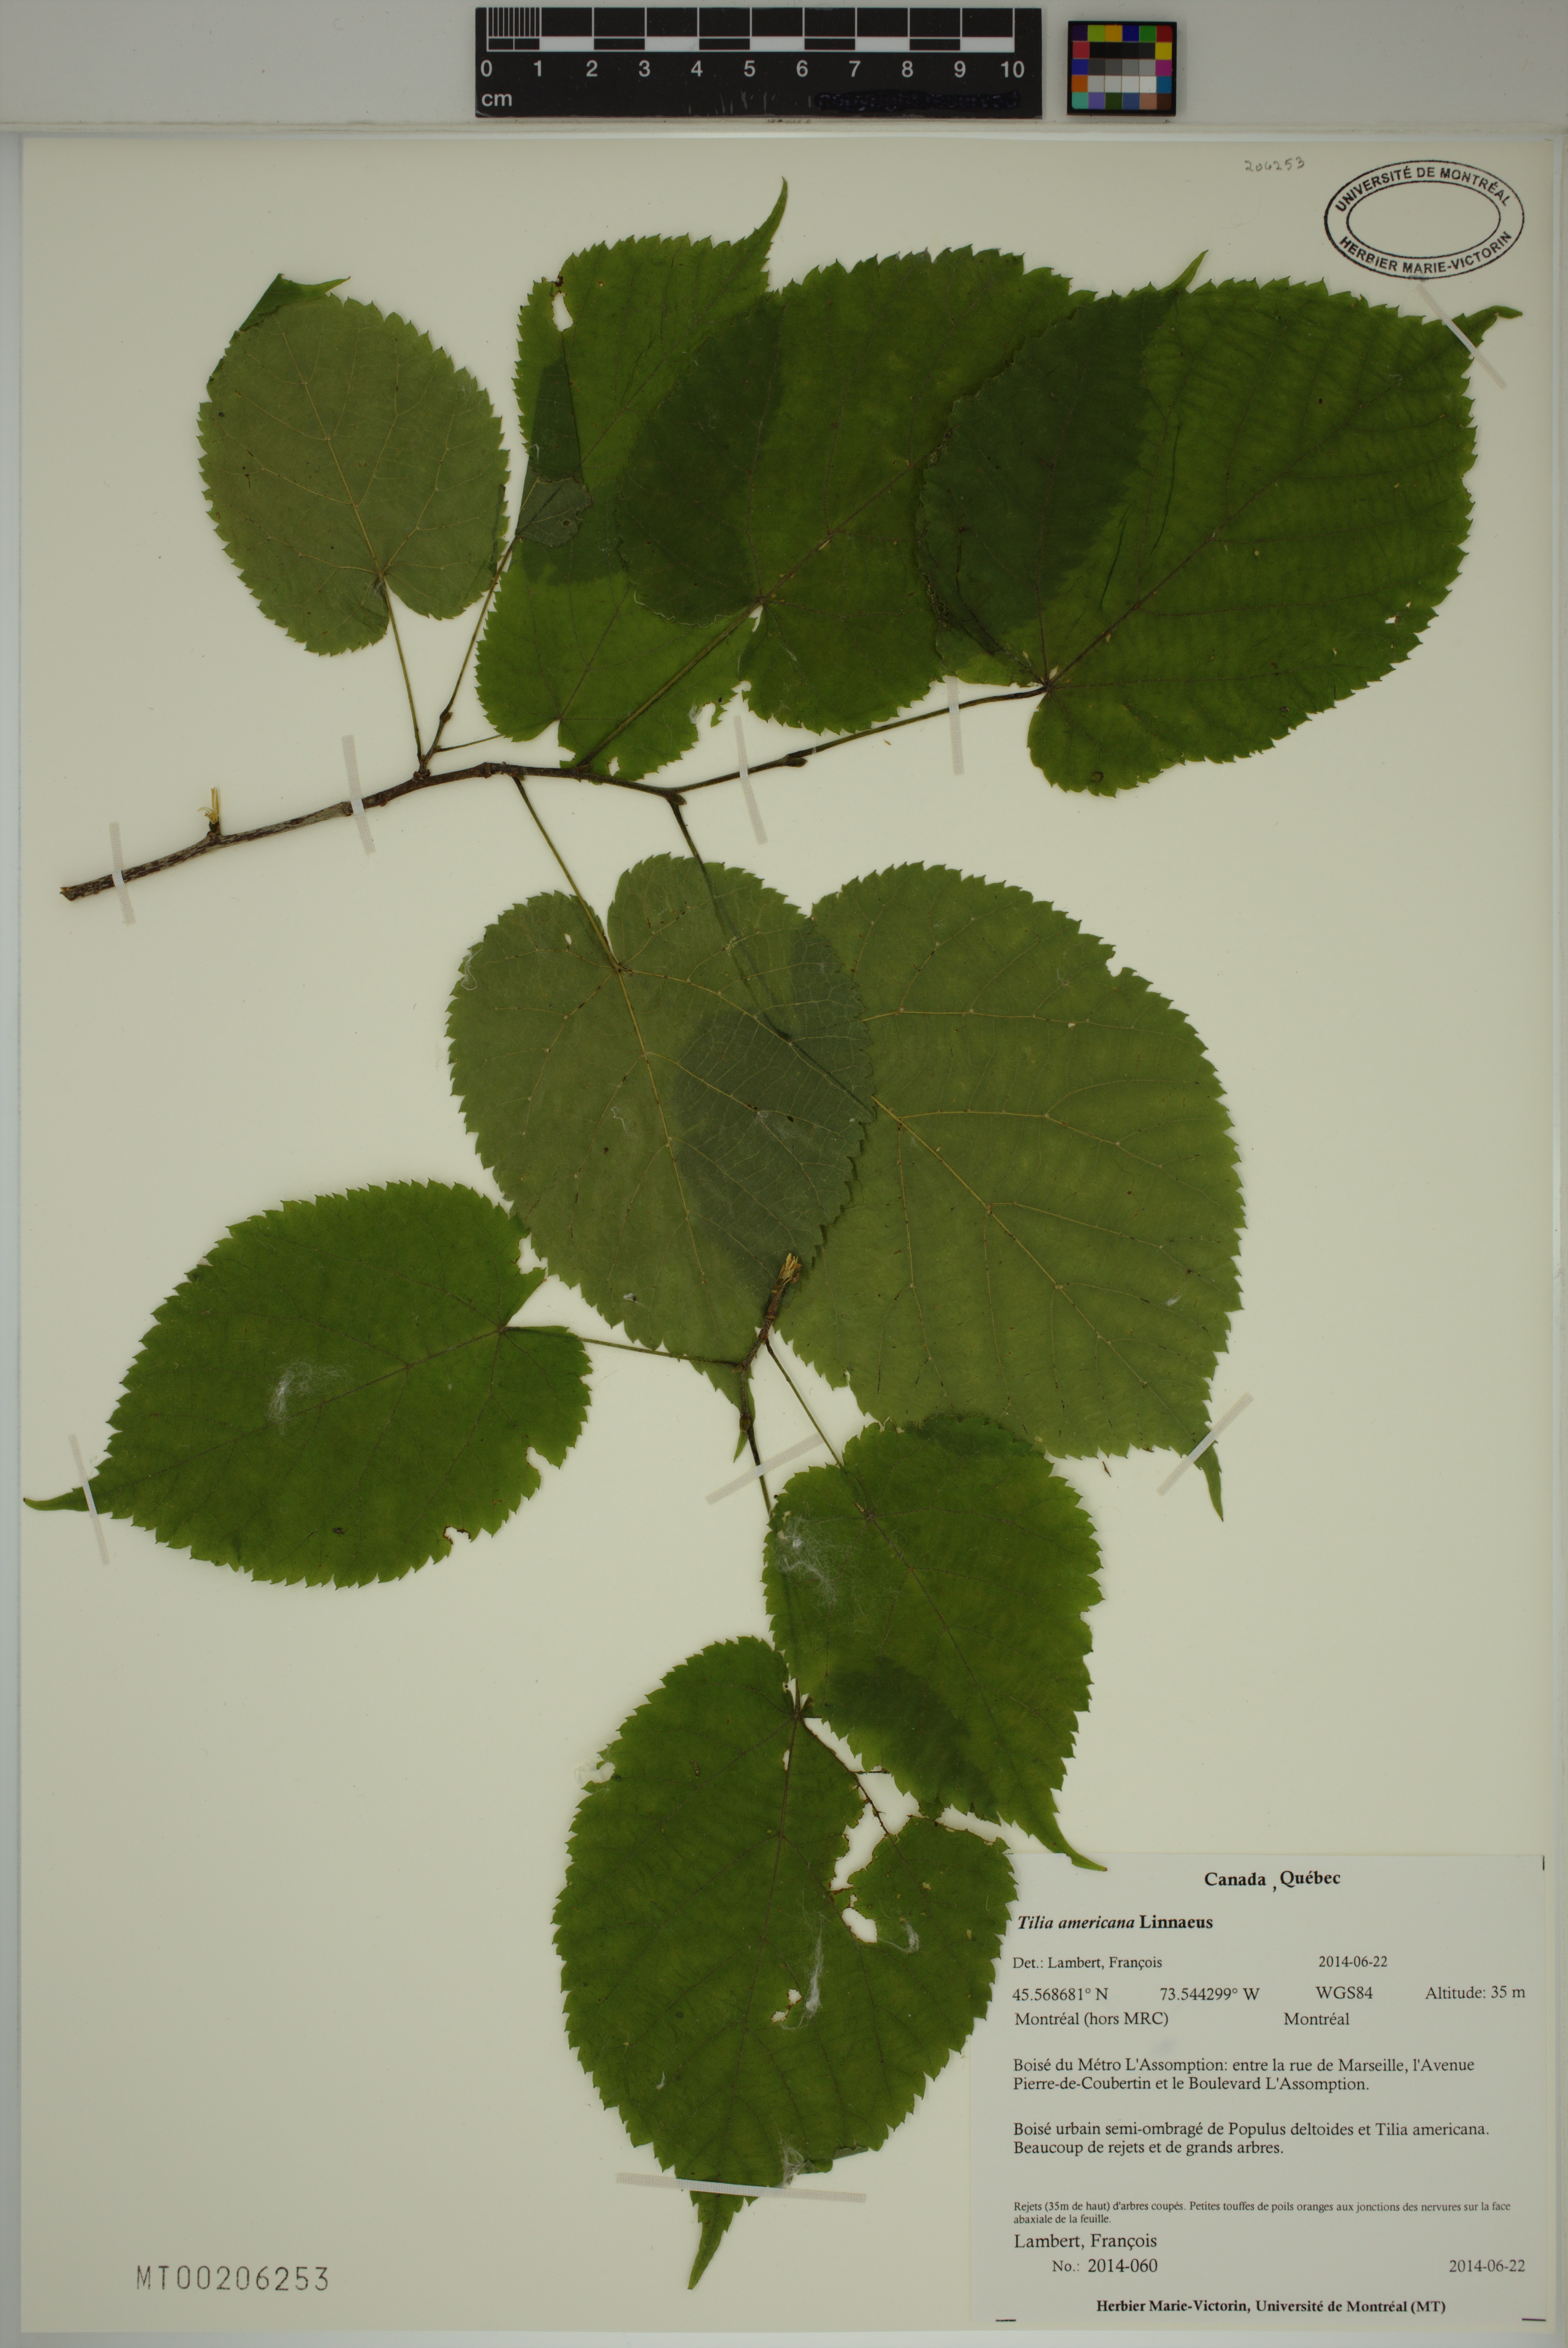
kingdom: Plantae
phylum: Tracheophyta
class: Magnoliopsida
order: Malvales
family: Malvaceae
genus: Tilia
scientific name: Tilia americana
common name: Basswood
